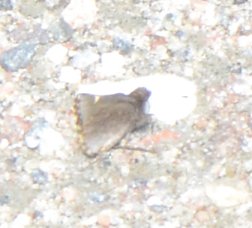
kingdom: Animalia
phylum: Arthropoda
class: Insecta
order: Lepidoptera
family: Hesperiidae
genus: Mastor
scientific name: Mastor vialis
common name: Common Roadside-Skipper
